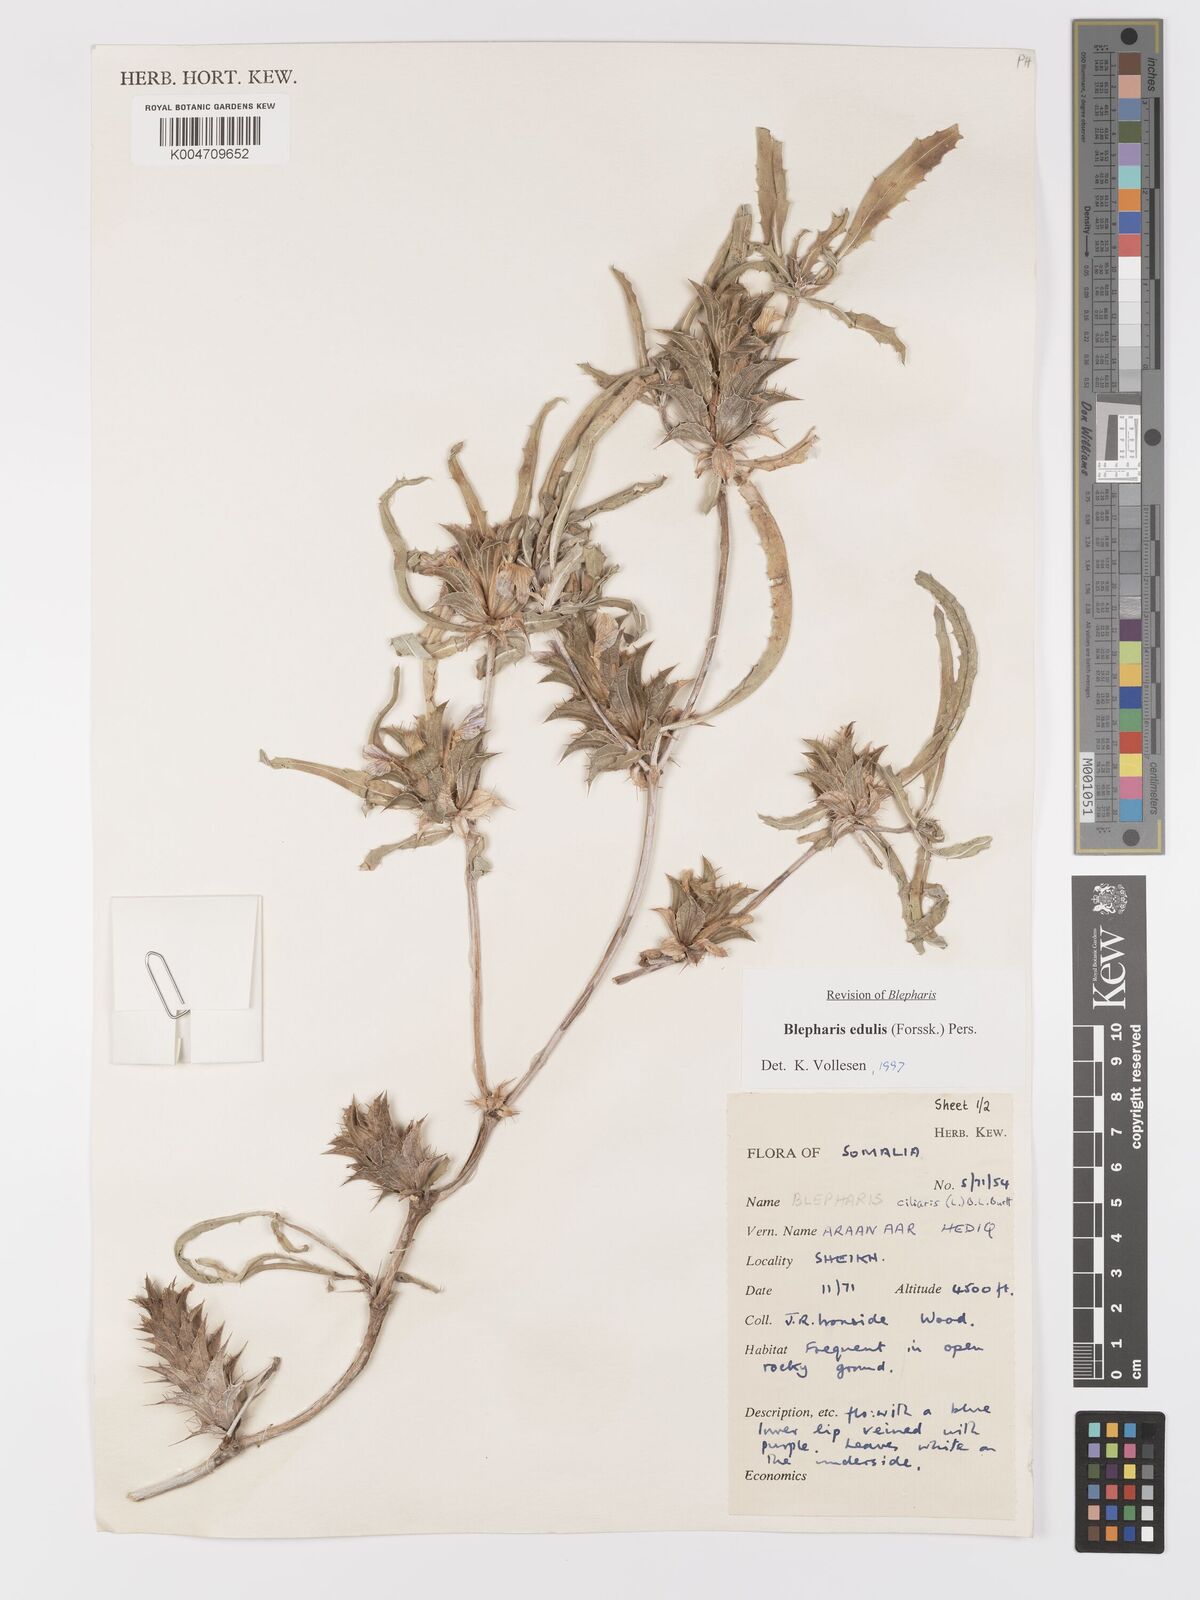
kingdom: Plantae
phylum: Tracheophyta
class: Magnoliopsida
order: Lamiales
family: Acanthaceae
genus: Blepharis
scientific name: Blepharis edulis
